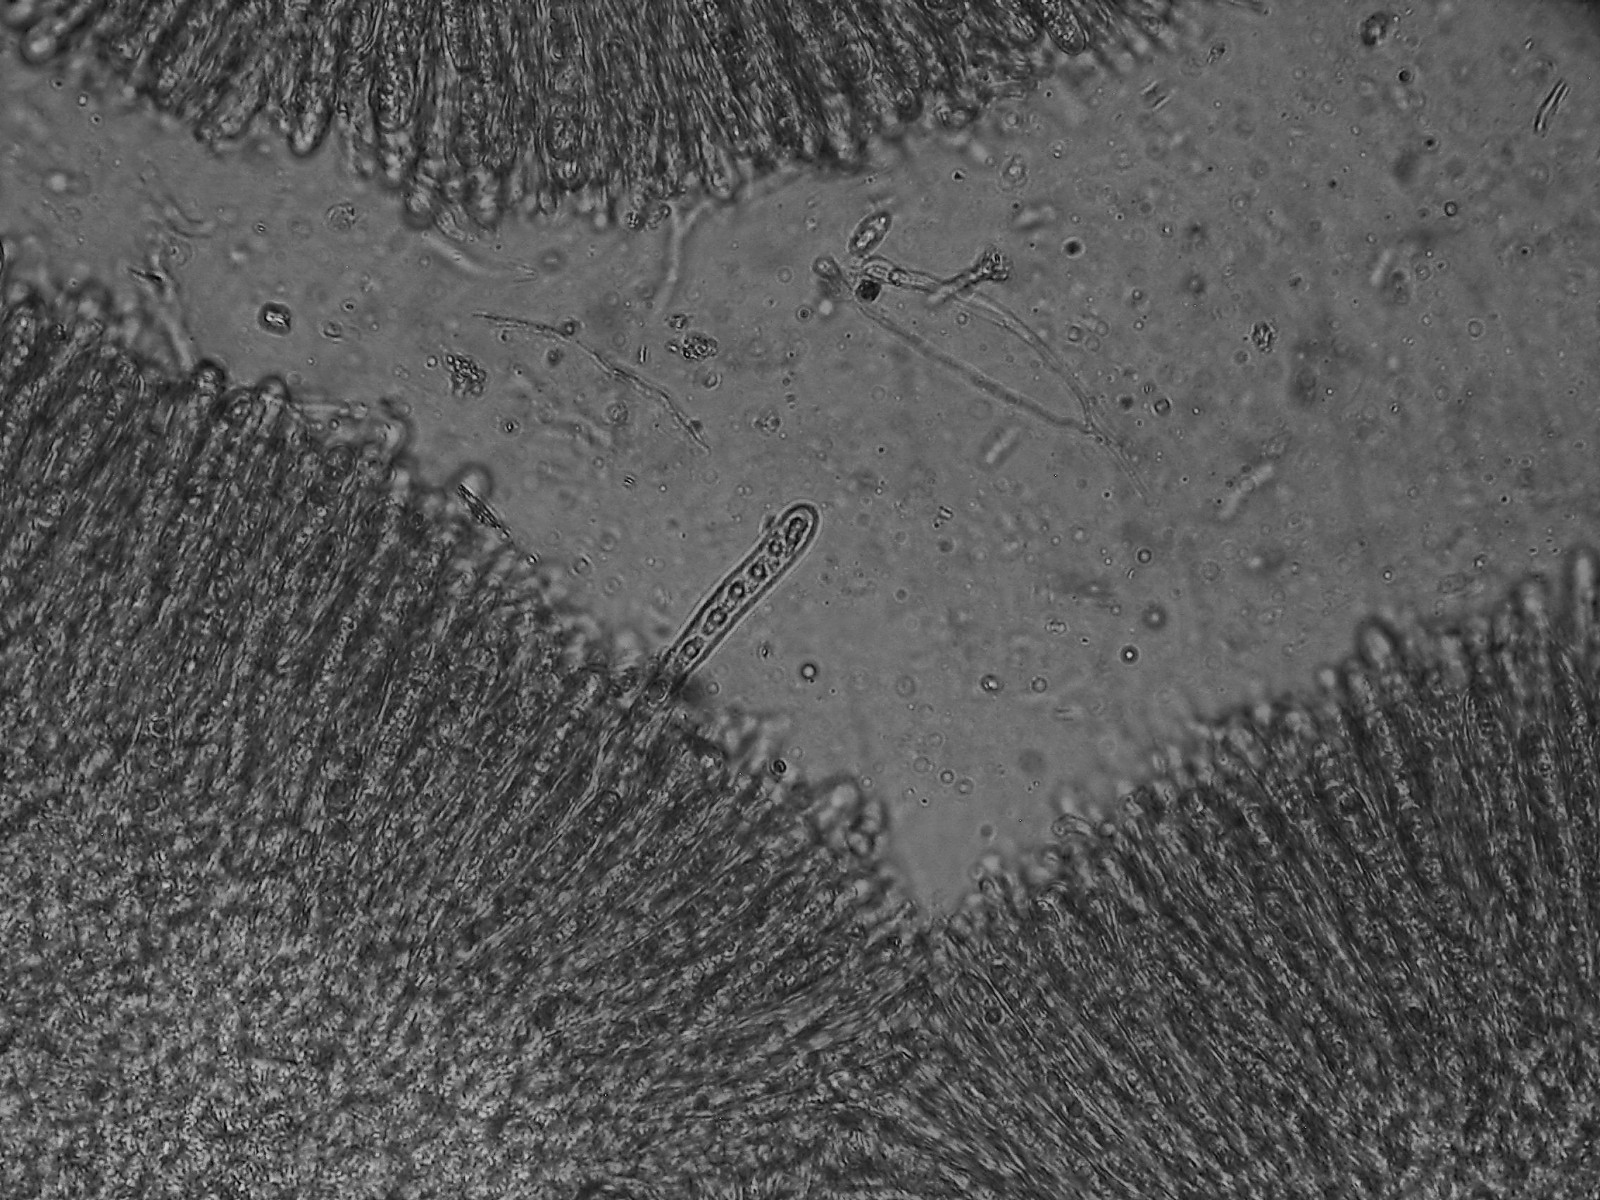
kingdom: Fungi
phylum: Ascomycota
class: Lecanoromycetes
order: Baeomycetales
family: Baeomycetaceae
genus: Baeomyces
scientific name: Baeomyces rufus
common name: rødbrun svampelav
